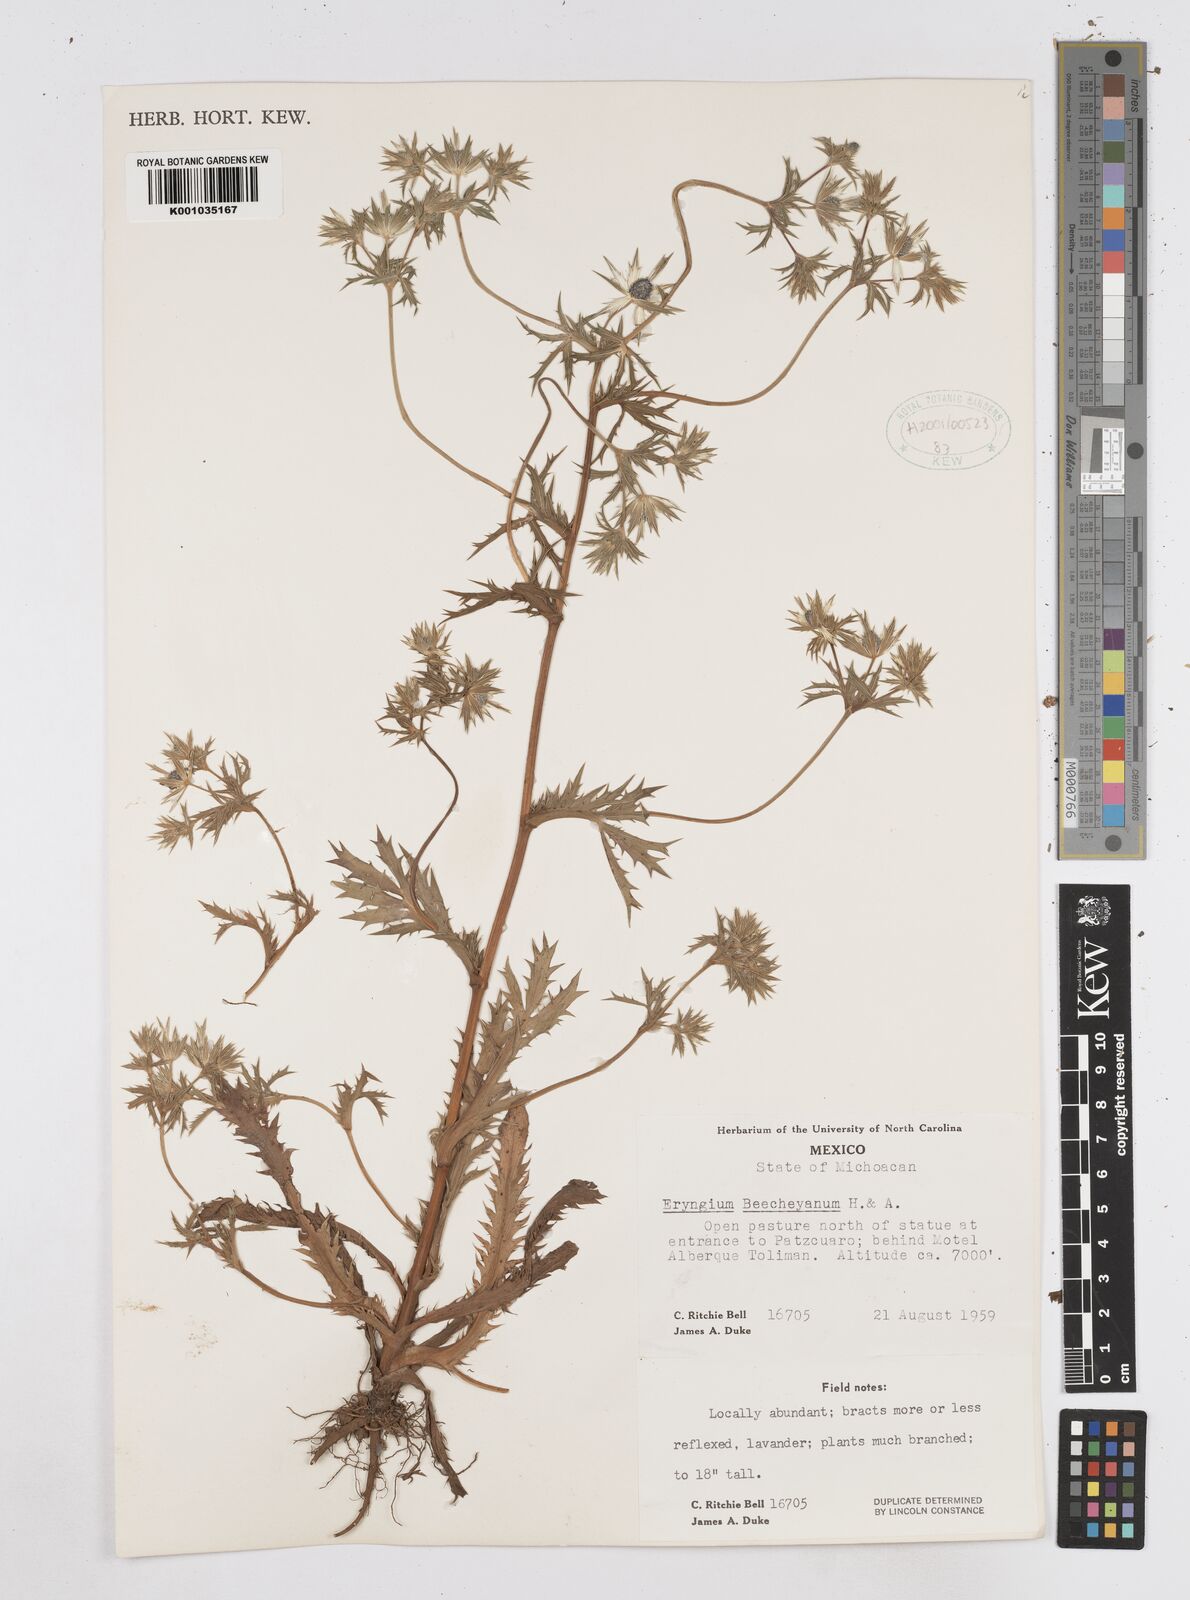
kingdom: Plantae
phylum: Tracheophyta
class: Magnoliopsida
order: Apiales
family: Apiaceae
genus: Eryngium
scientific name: Eryngium beecheyanum
